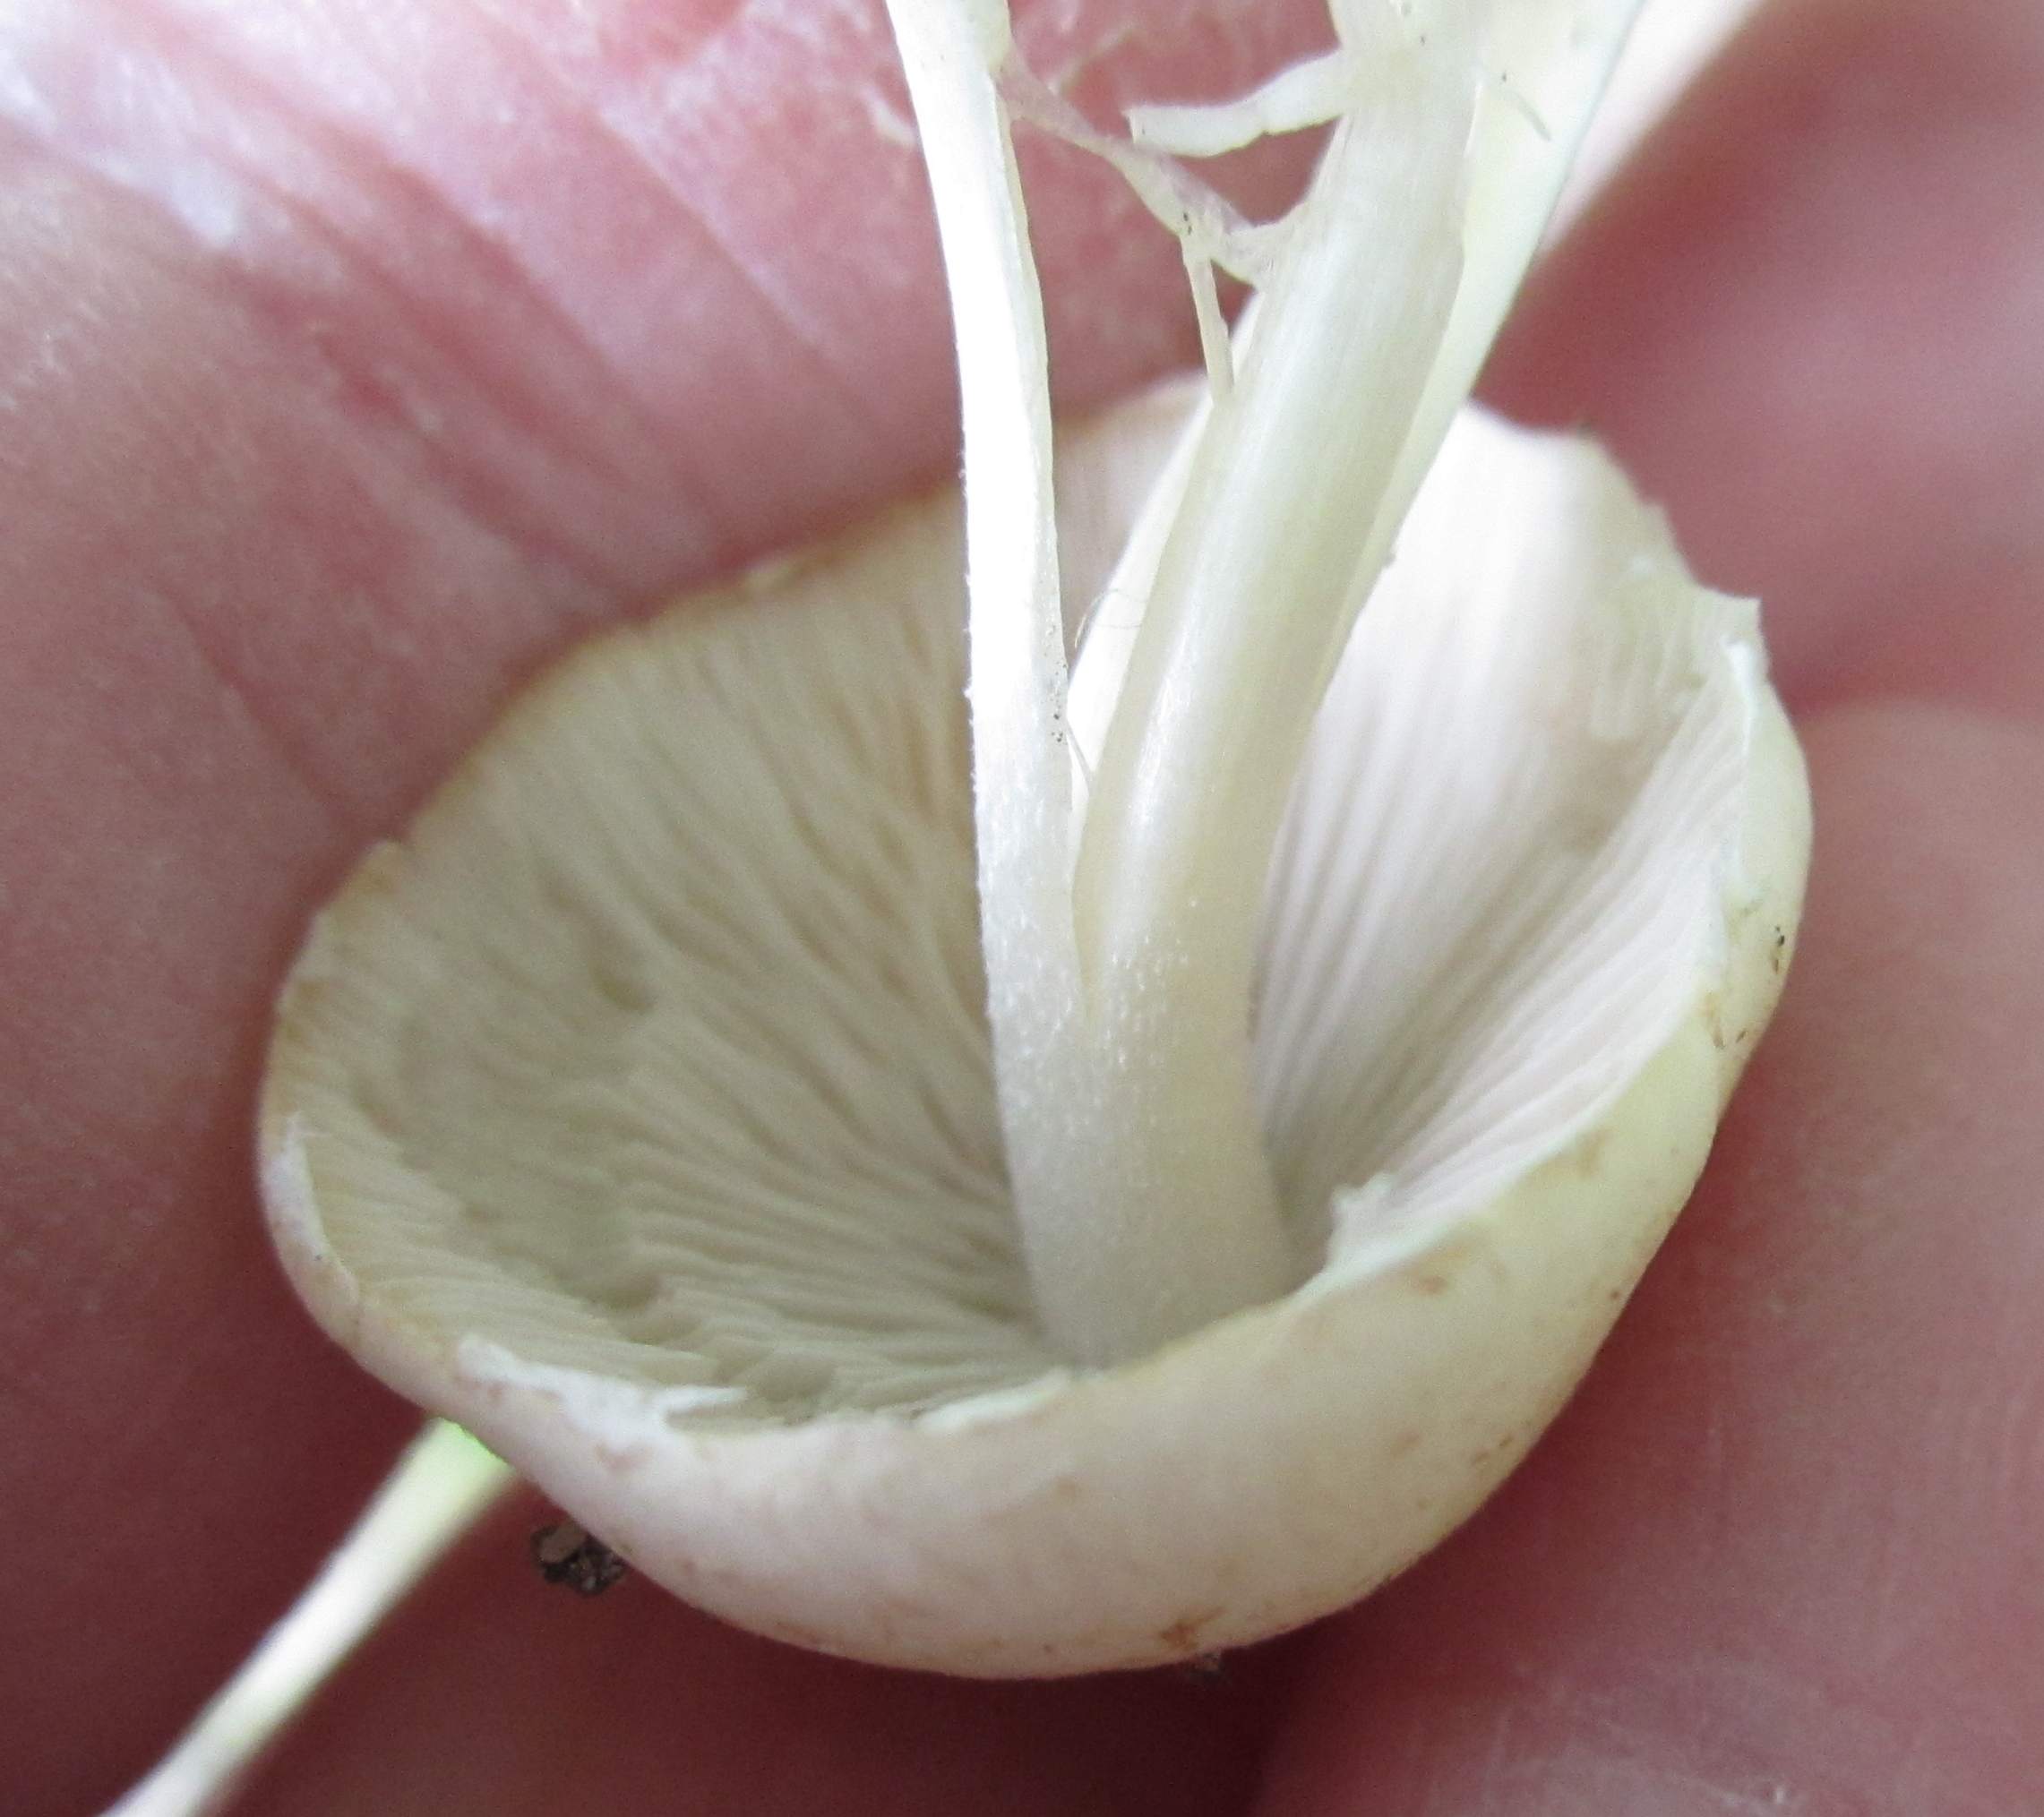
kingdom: Fungi
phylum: Basidiomycota
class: Agaricomycetes
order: Agaricales
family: Psathyrellaceae
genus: Candolleomyces
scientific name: Candolleomyces candolleanus
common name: Candolles mørkhat
